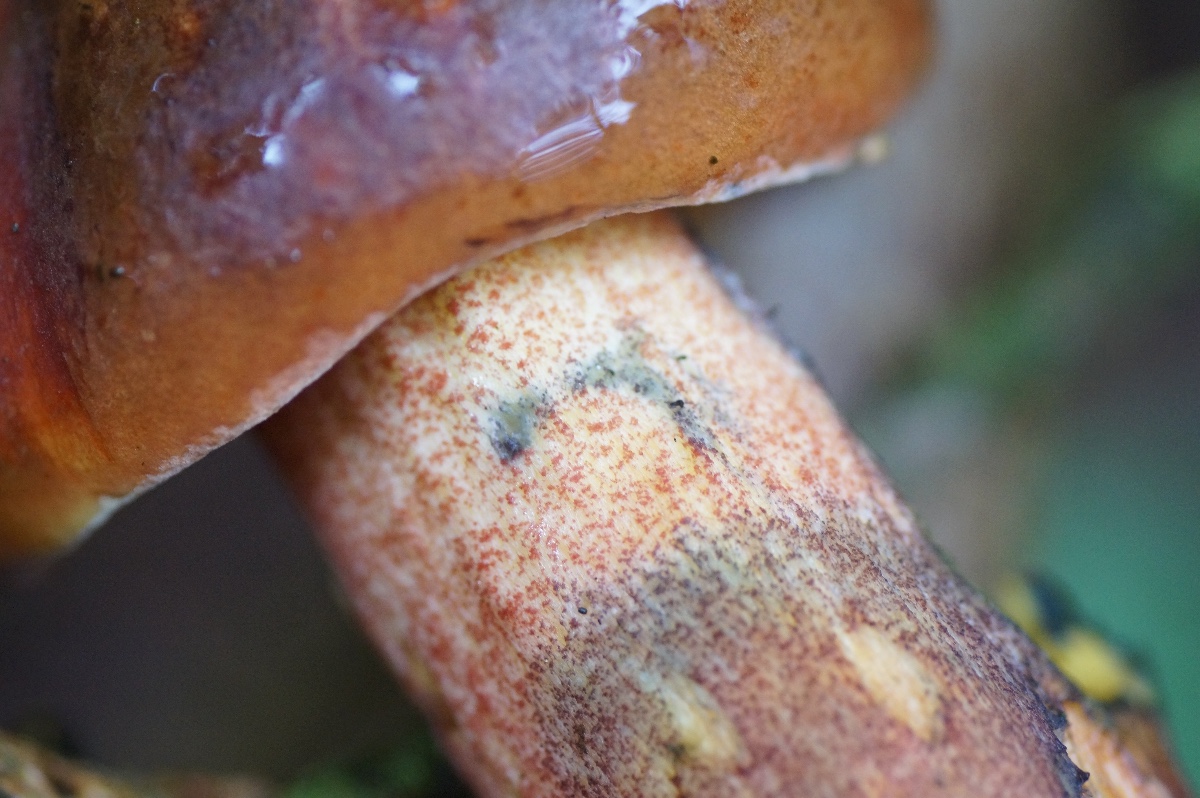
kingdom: Fungi
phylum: Basidiomycota
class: Agaricomycetes
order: Boletales
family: Boletaceae
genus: Neoboletus
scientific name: Neoboletus erythropus
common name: punktstokket indigorørhat
